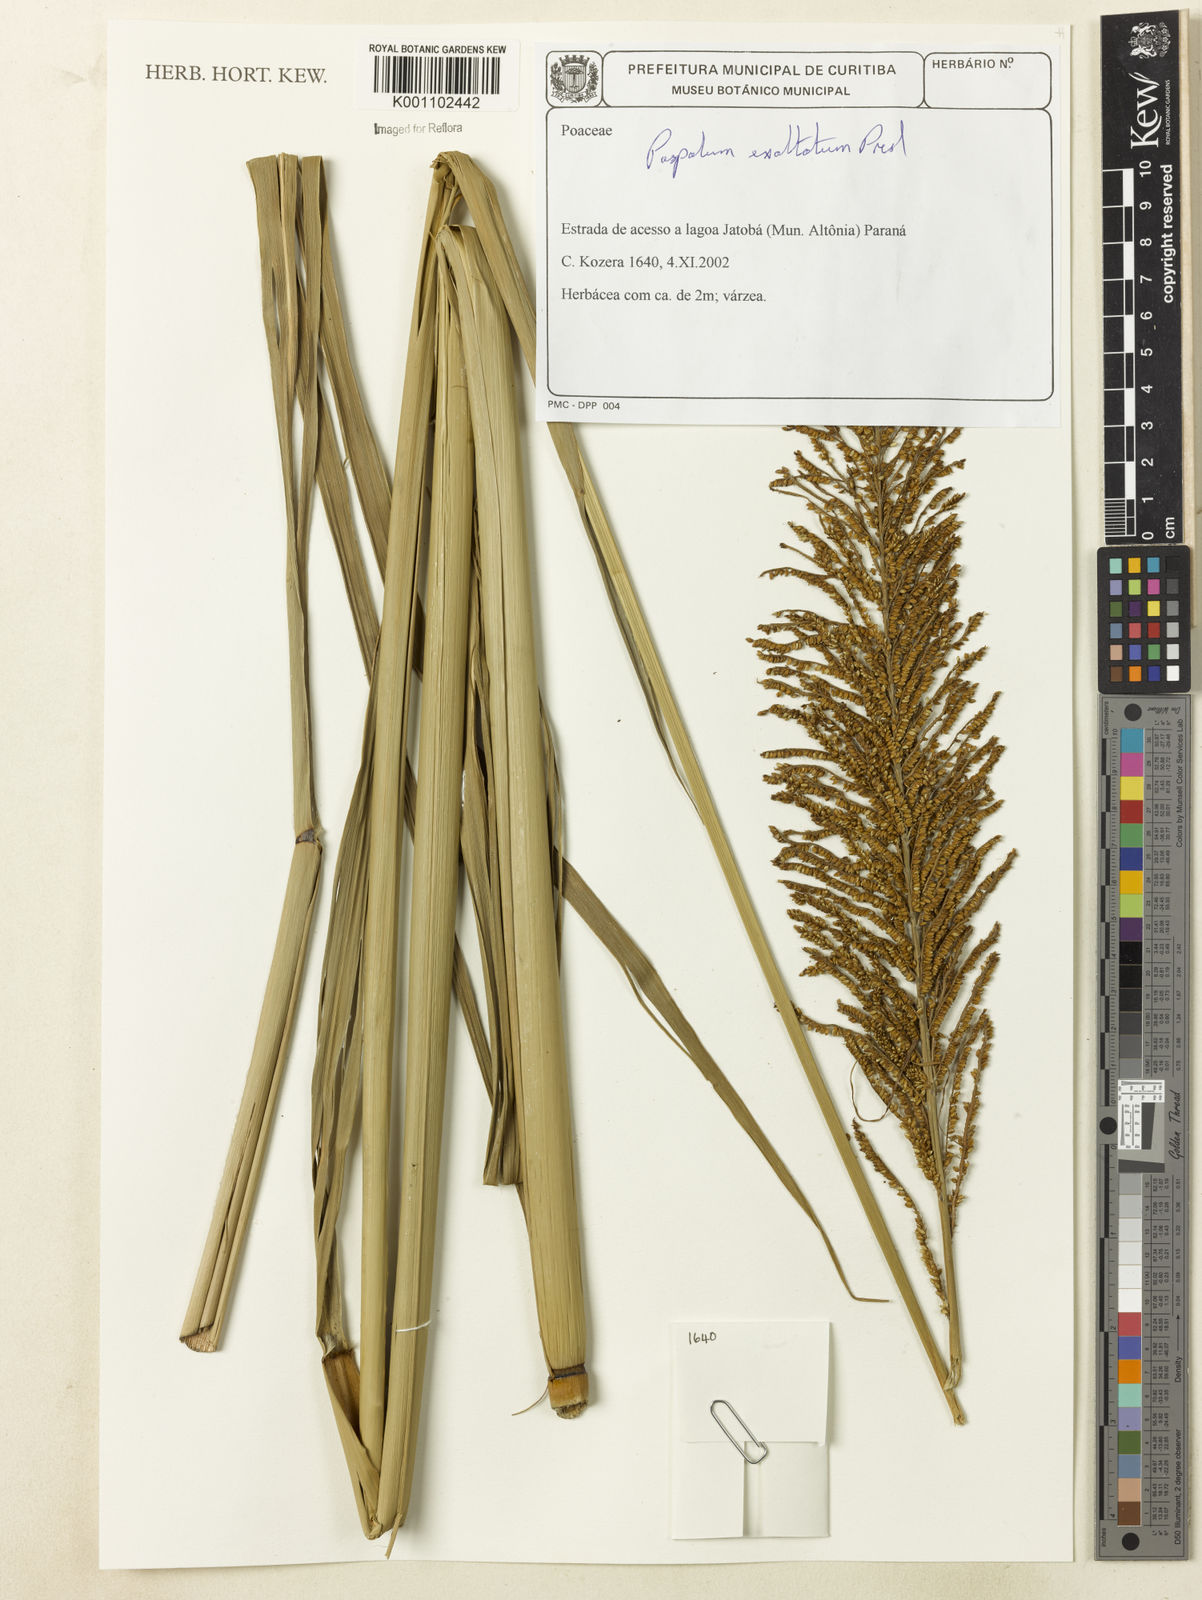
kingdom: Plantae
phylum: Tracheophyta
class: Liliopsida
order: Poales
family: Poaceae
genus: Paspalum
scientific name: Paspalum exaltatum
